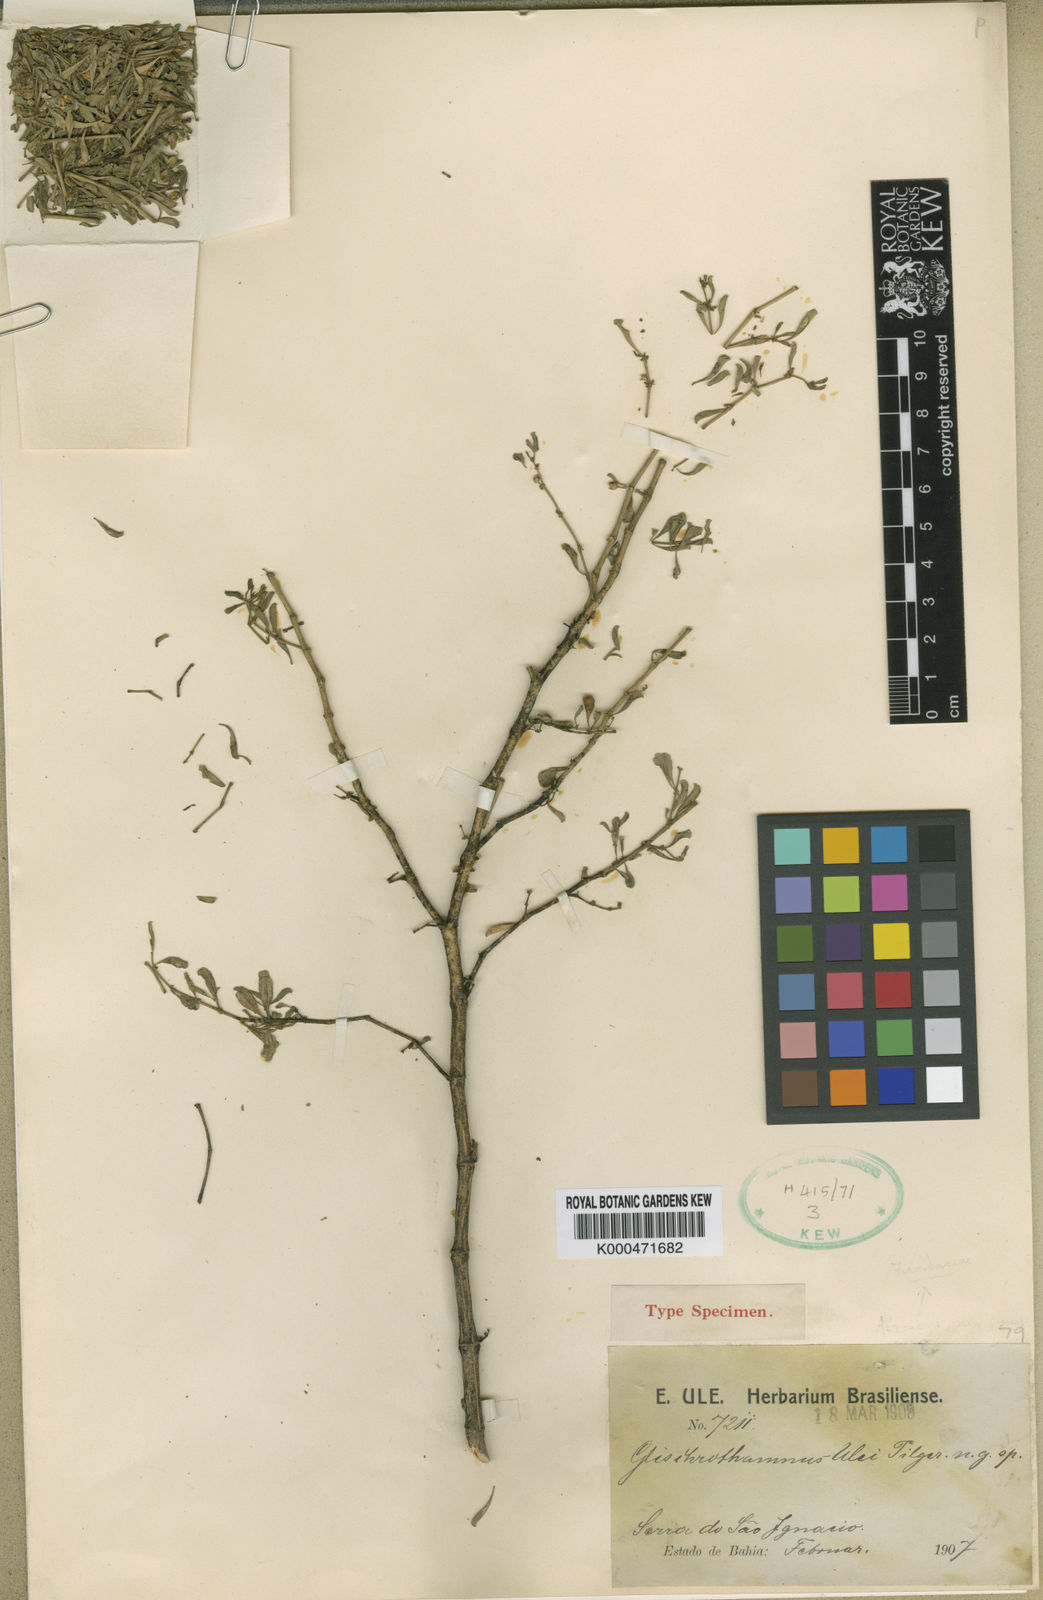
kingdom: Plantae
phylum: Tracheophyta
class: Magnoliopsida
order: Caryophyllales
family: Molluginaceae
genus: Mollugo
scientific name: Mollugo ulei
